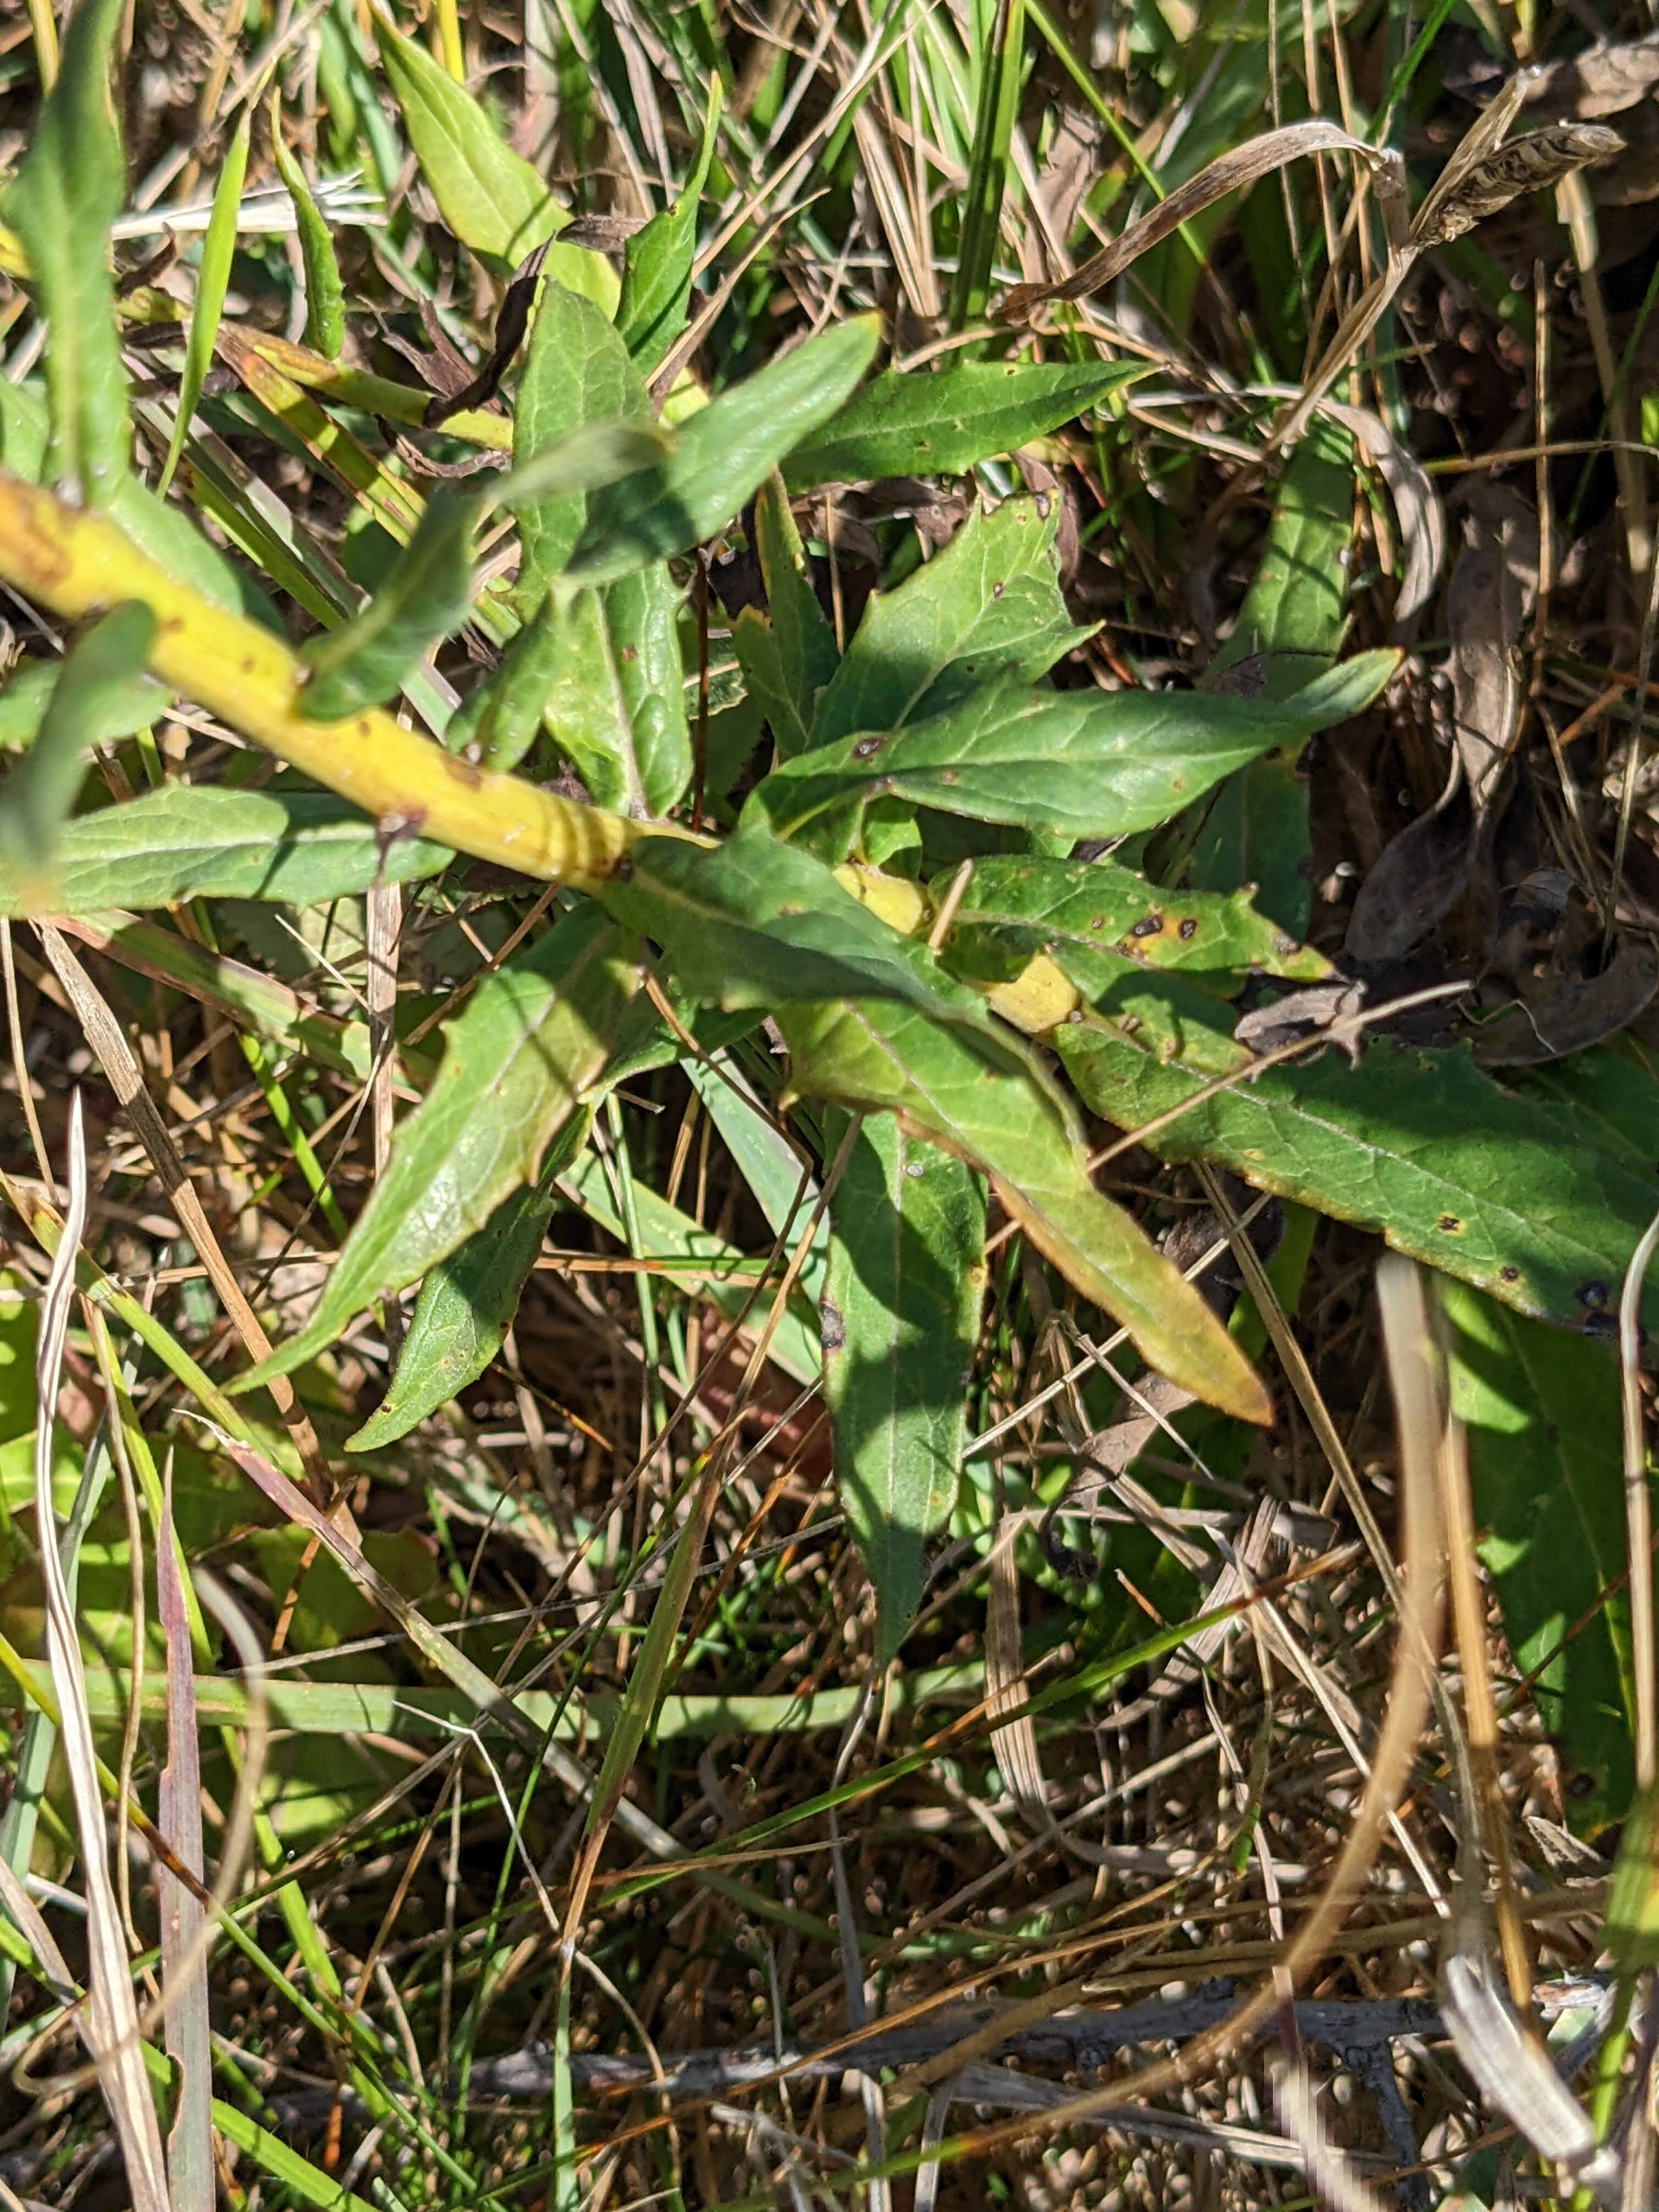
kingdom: Plantae
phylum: Tracheophyta
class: Magnoliopsida
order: Asterales
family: Asteraceae
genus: Hieracium
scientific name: Hieracium umbellatum
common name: Smalbladet høgeurt
